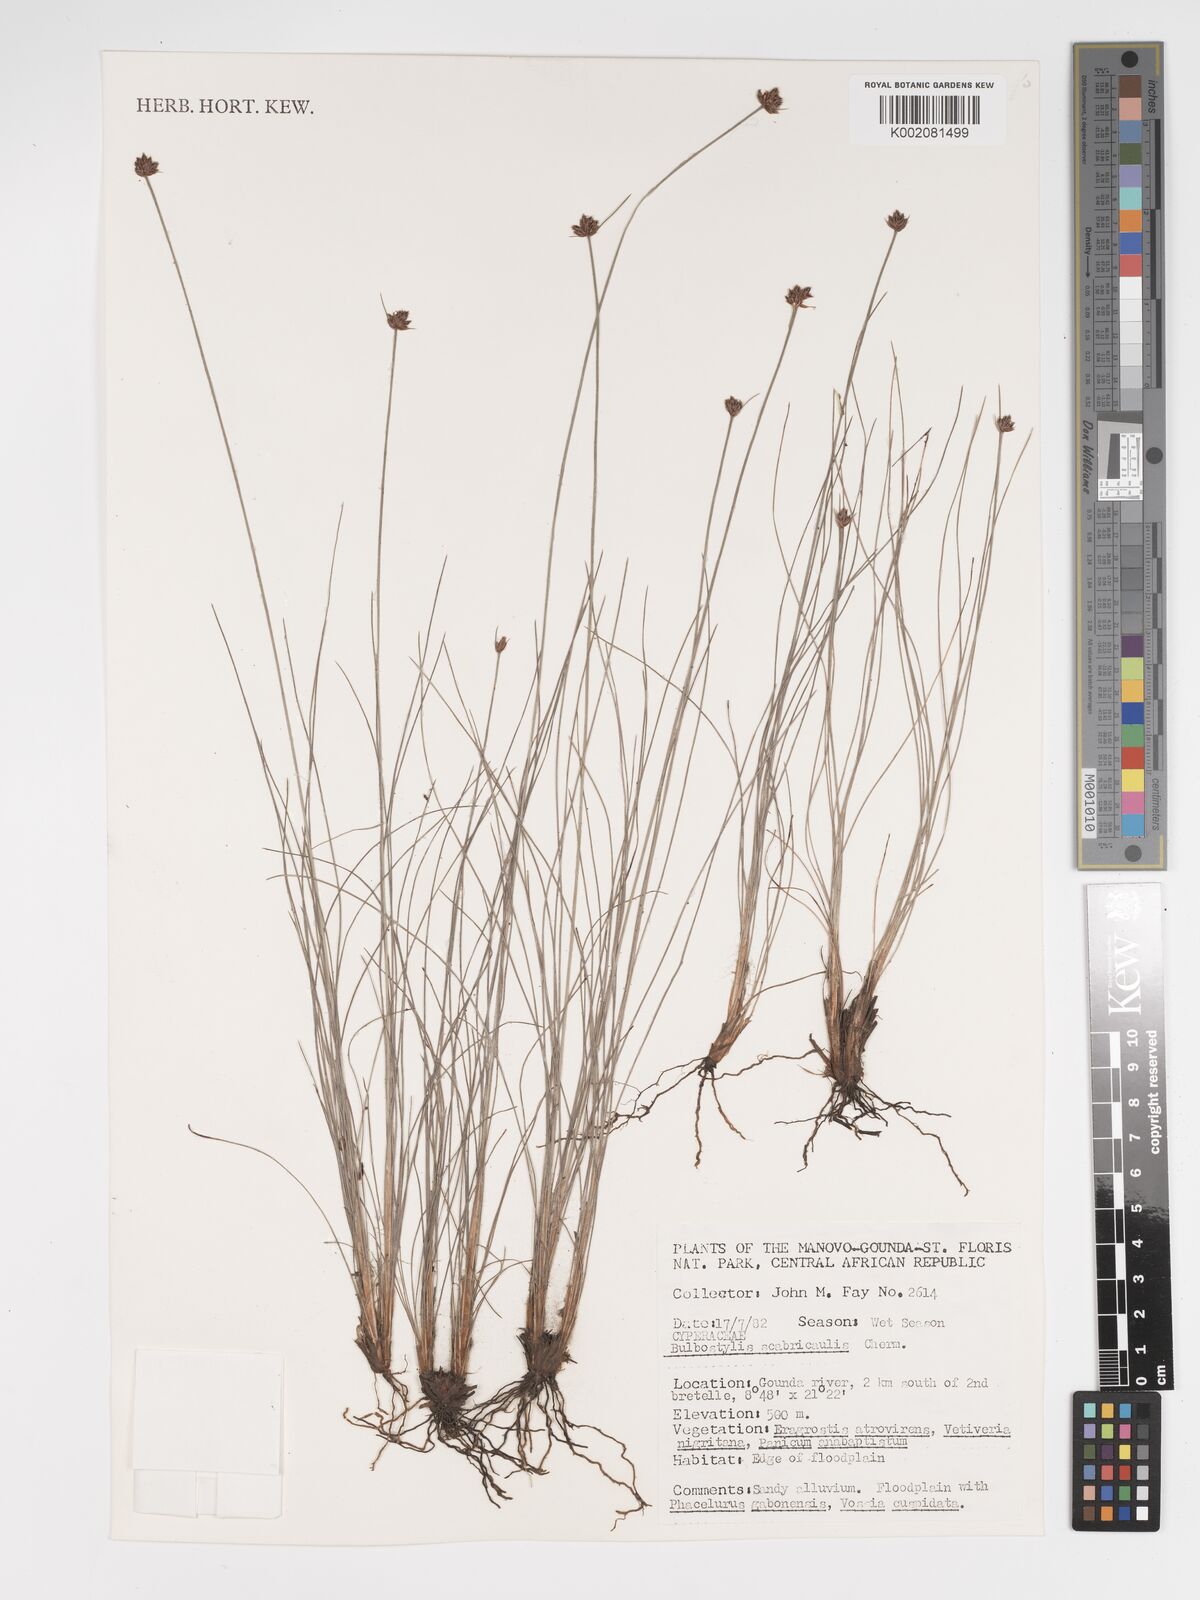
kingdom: Plantae
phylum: Tracheophyta
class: Liliopsida
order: Poales
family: Cyperaceae
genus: Bulbostylis
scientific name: Bulbostylis scabricaulis
